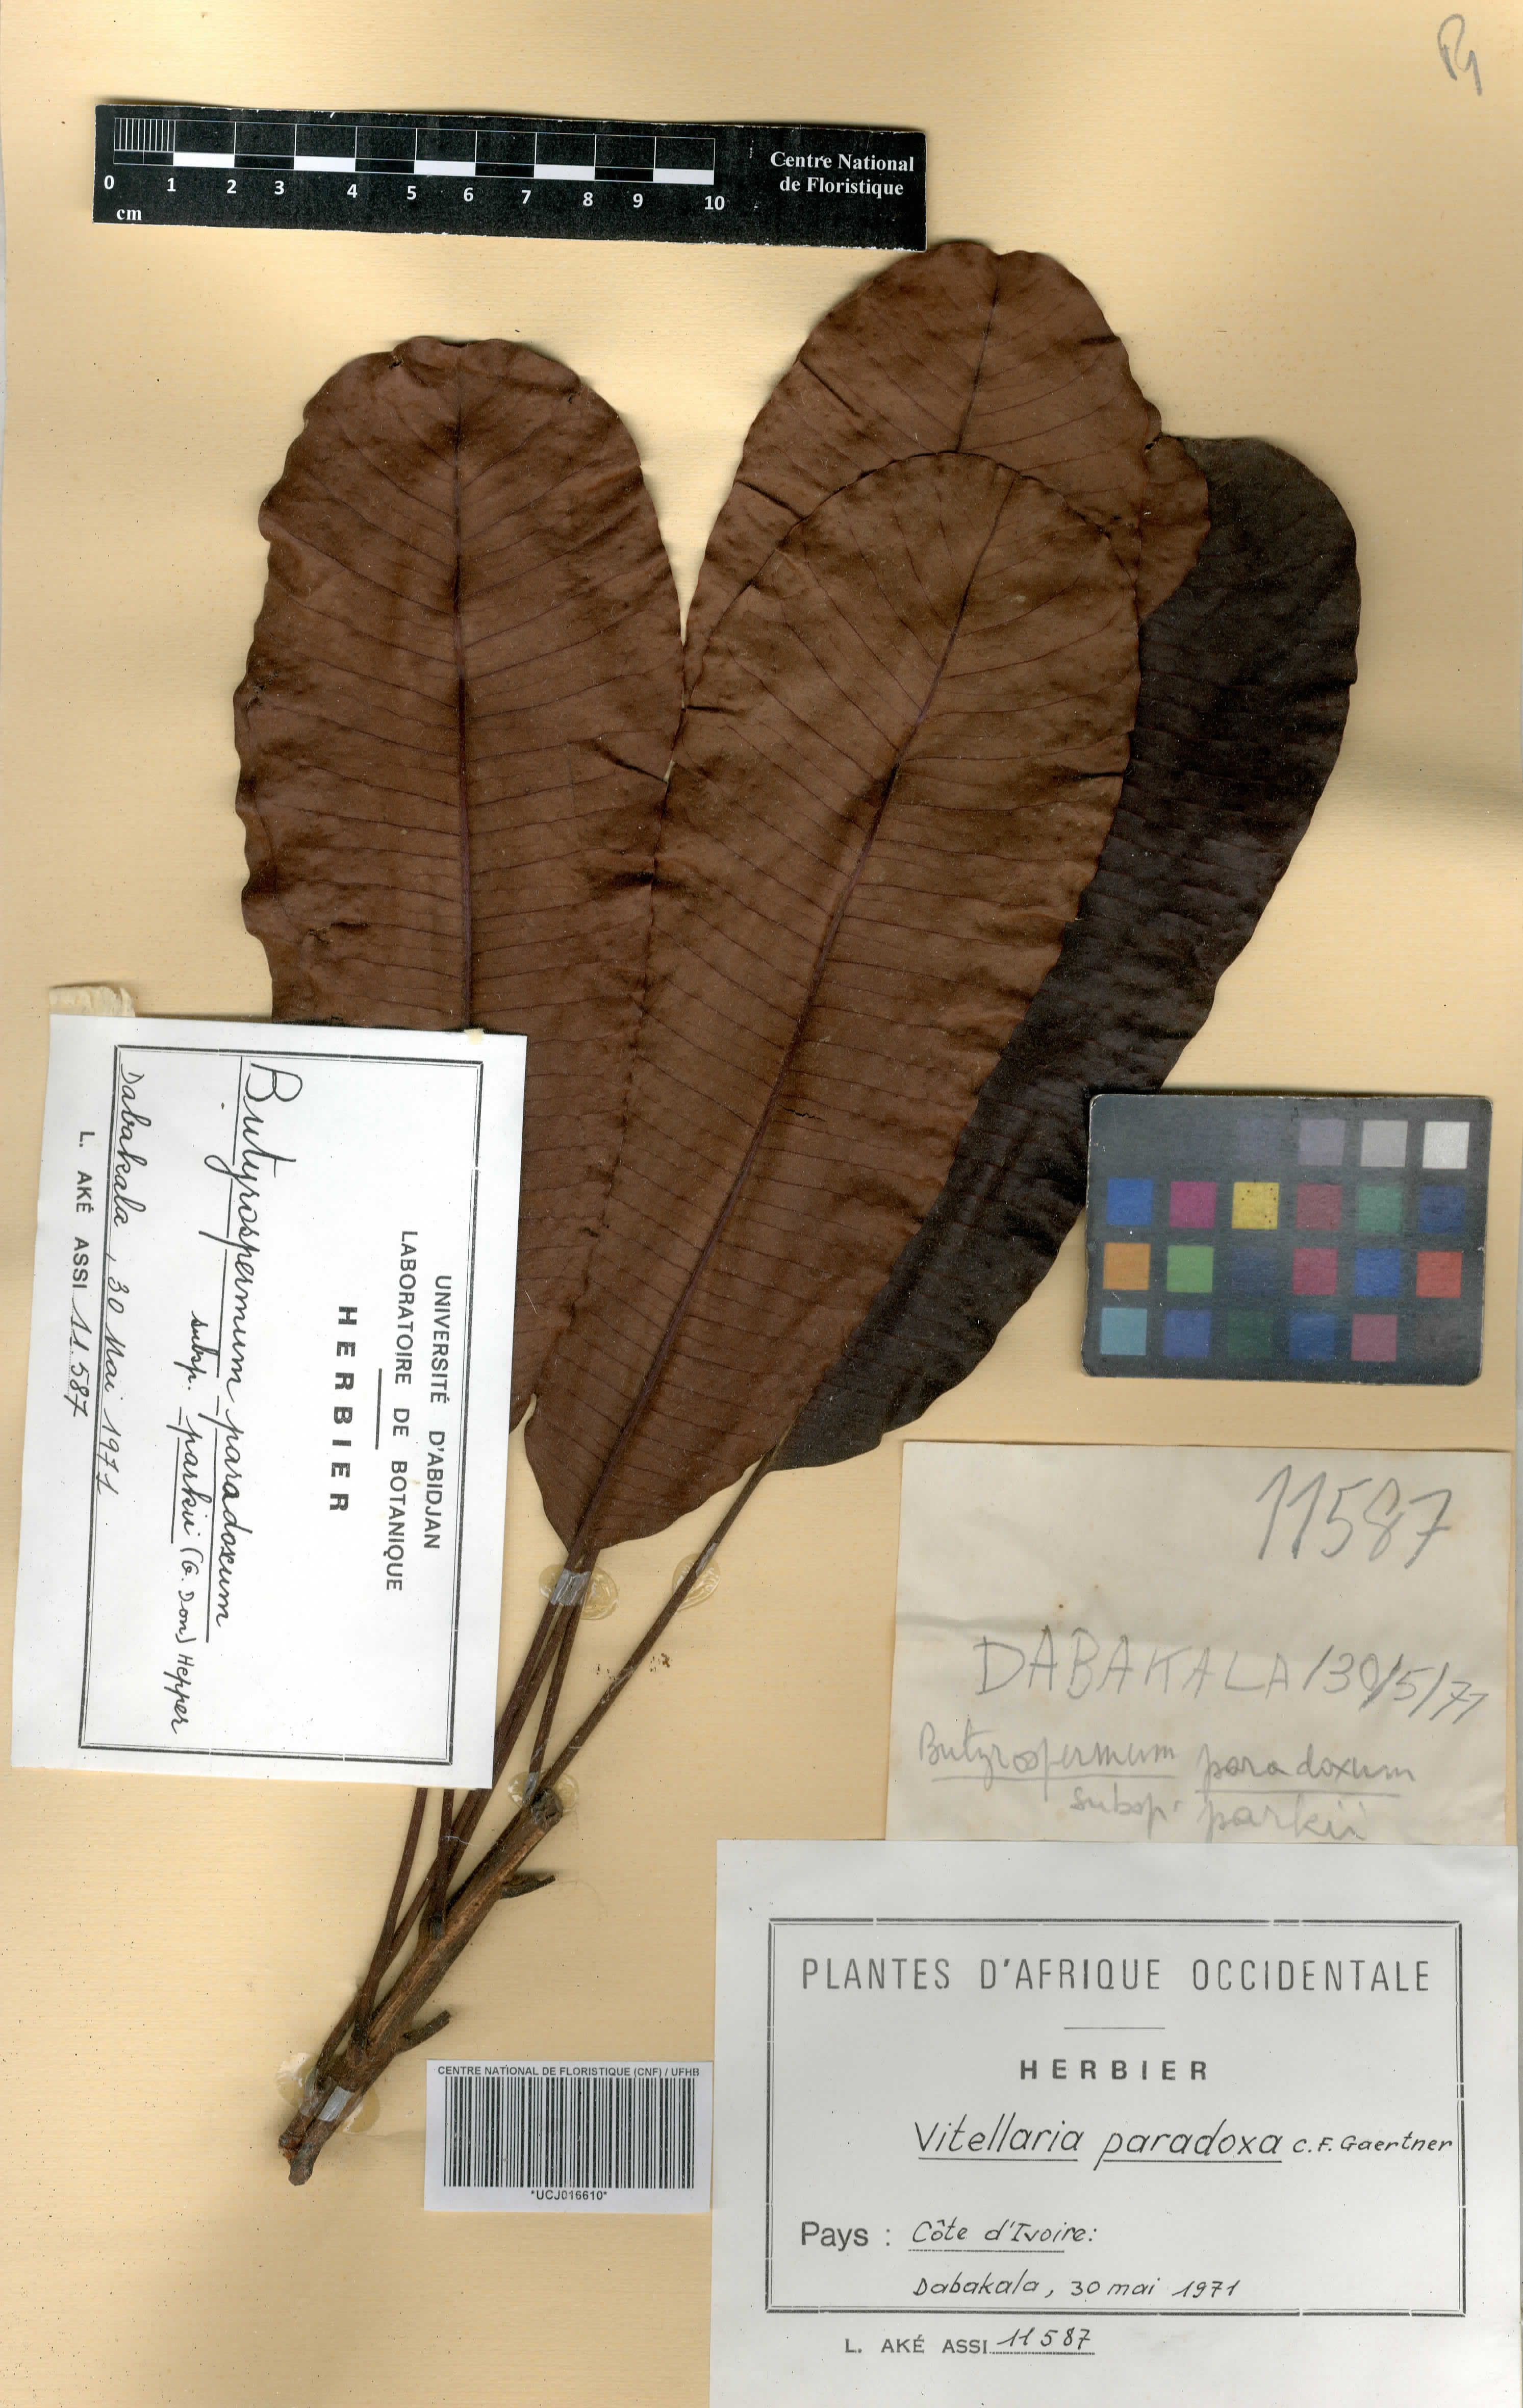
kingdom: Plantae
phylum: Tracheophyta
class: Magnoliopsida
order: Ericales
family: Sapotaceae
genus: Vitellaria
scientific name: Vitellaria paradoxa
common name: Shea butter tree
